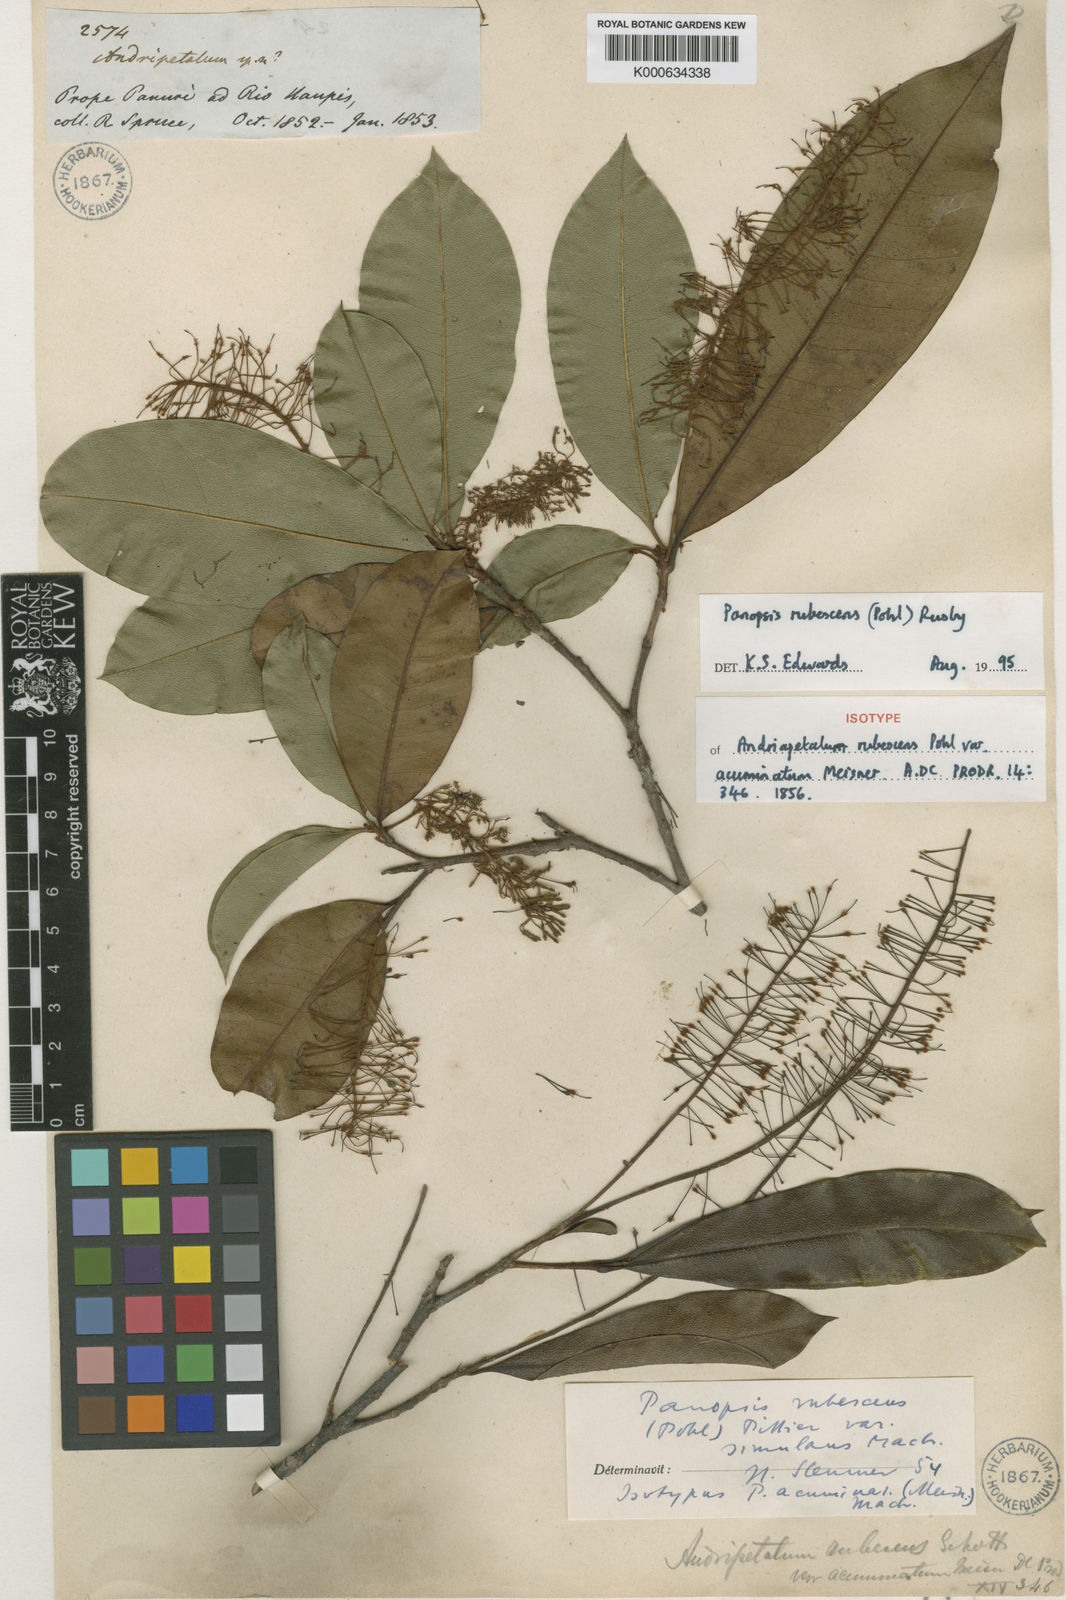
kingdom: Plantae
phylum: Tracheophyta
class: Magnoliopsida
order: Proteales
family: Proteaceae
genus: Panopsis
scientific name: Panopsis
